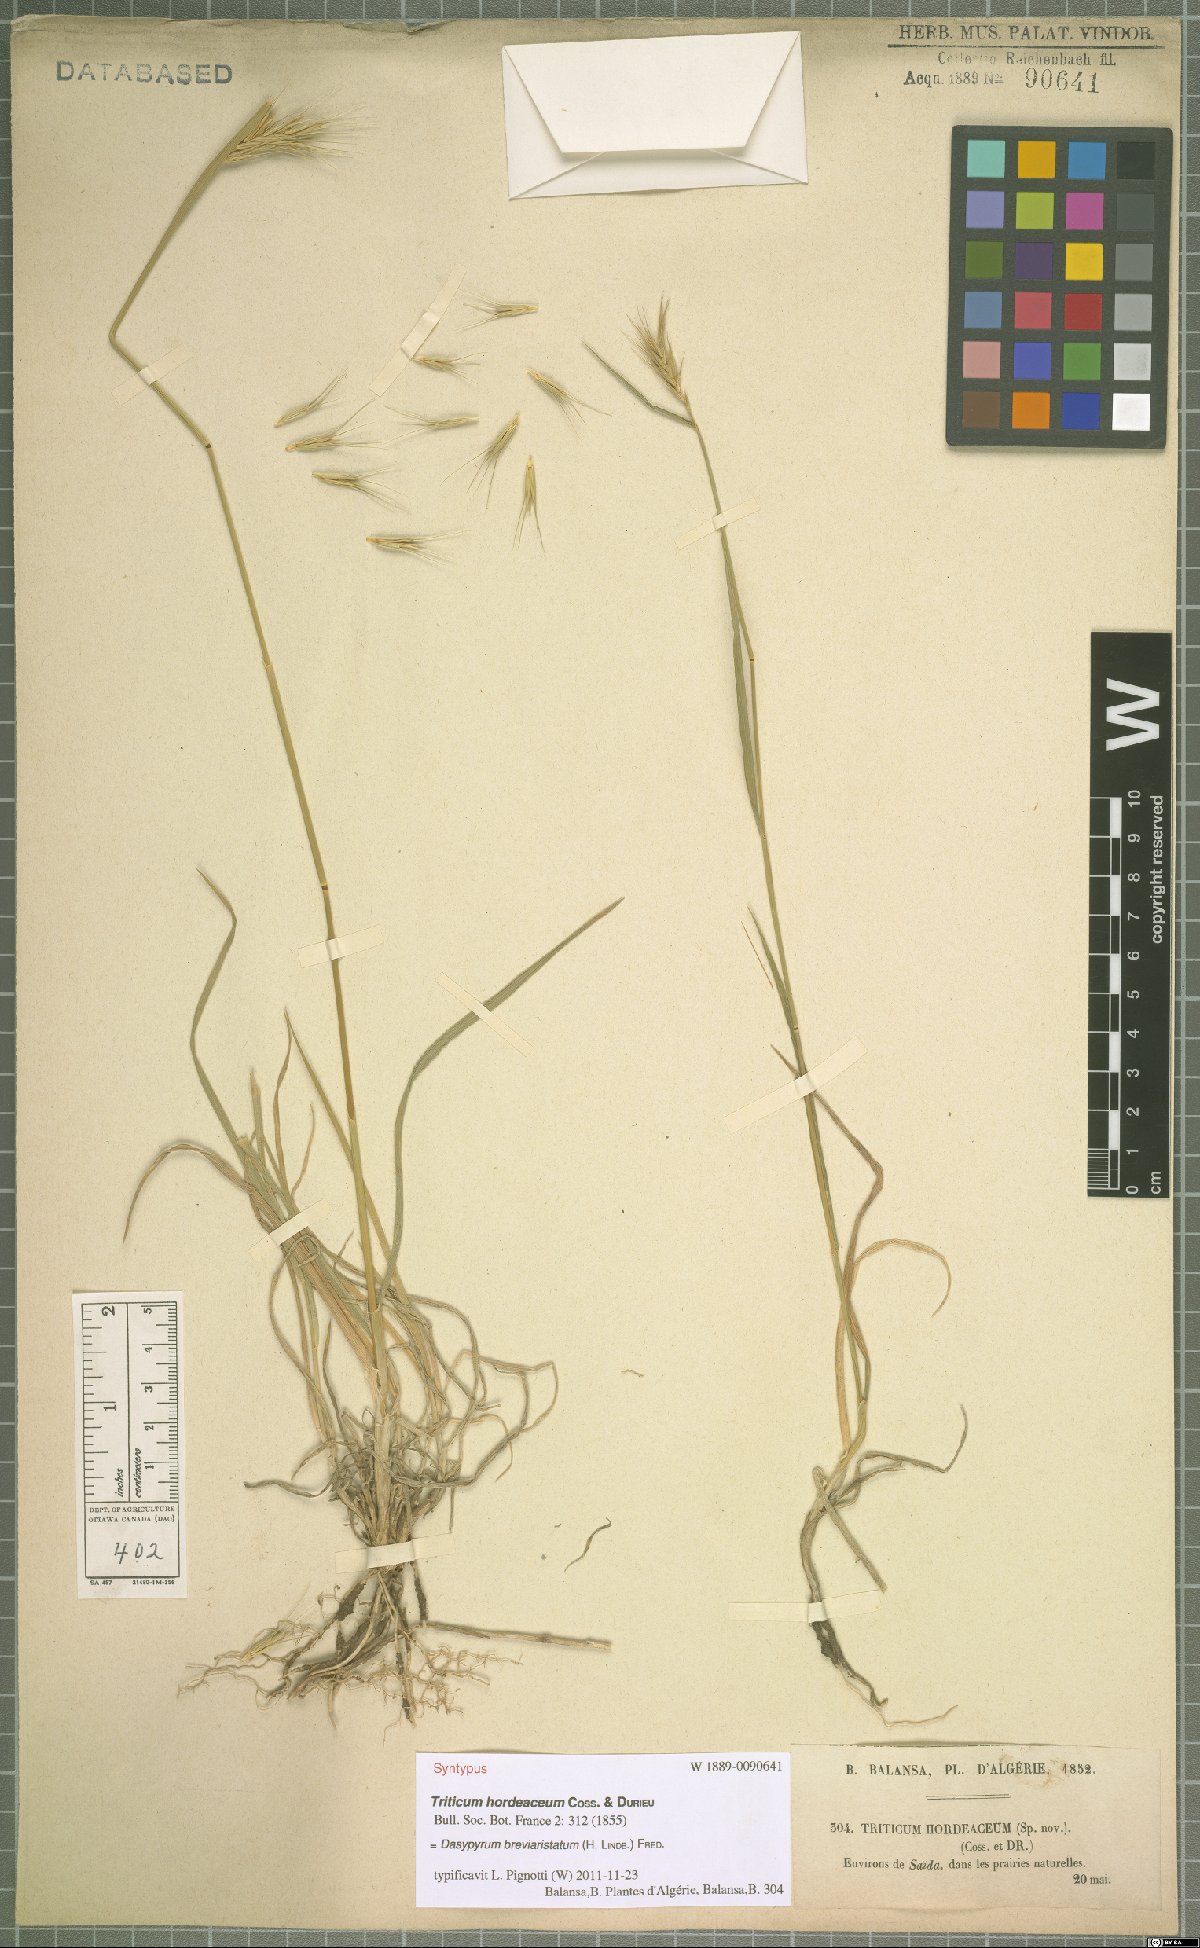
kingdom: Plantae
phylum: Tracheophyta
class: Liliopsida
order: Poales
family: Poaceae
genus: Dasypyrum
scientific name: Dasypyrum hordeaceum
